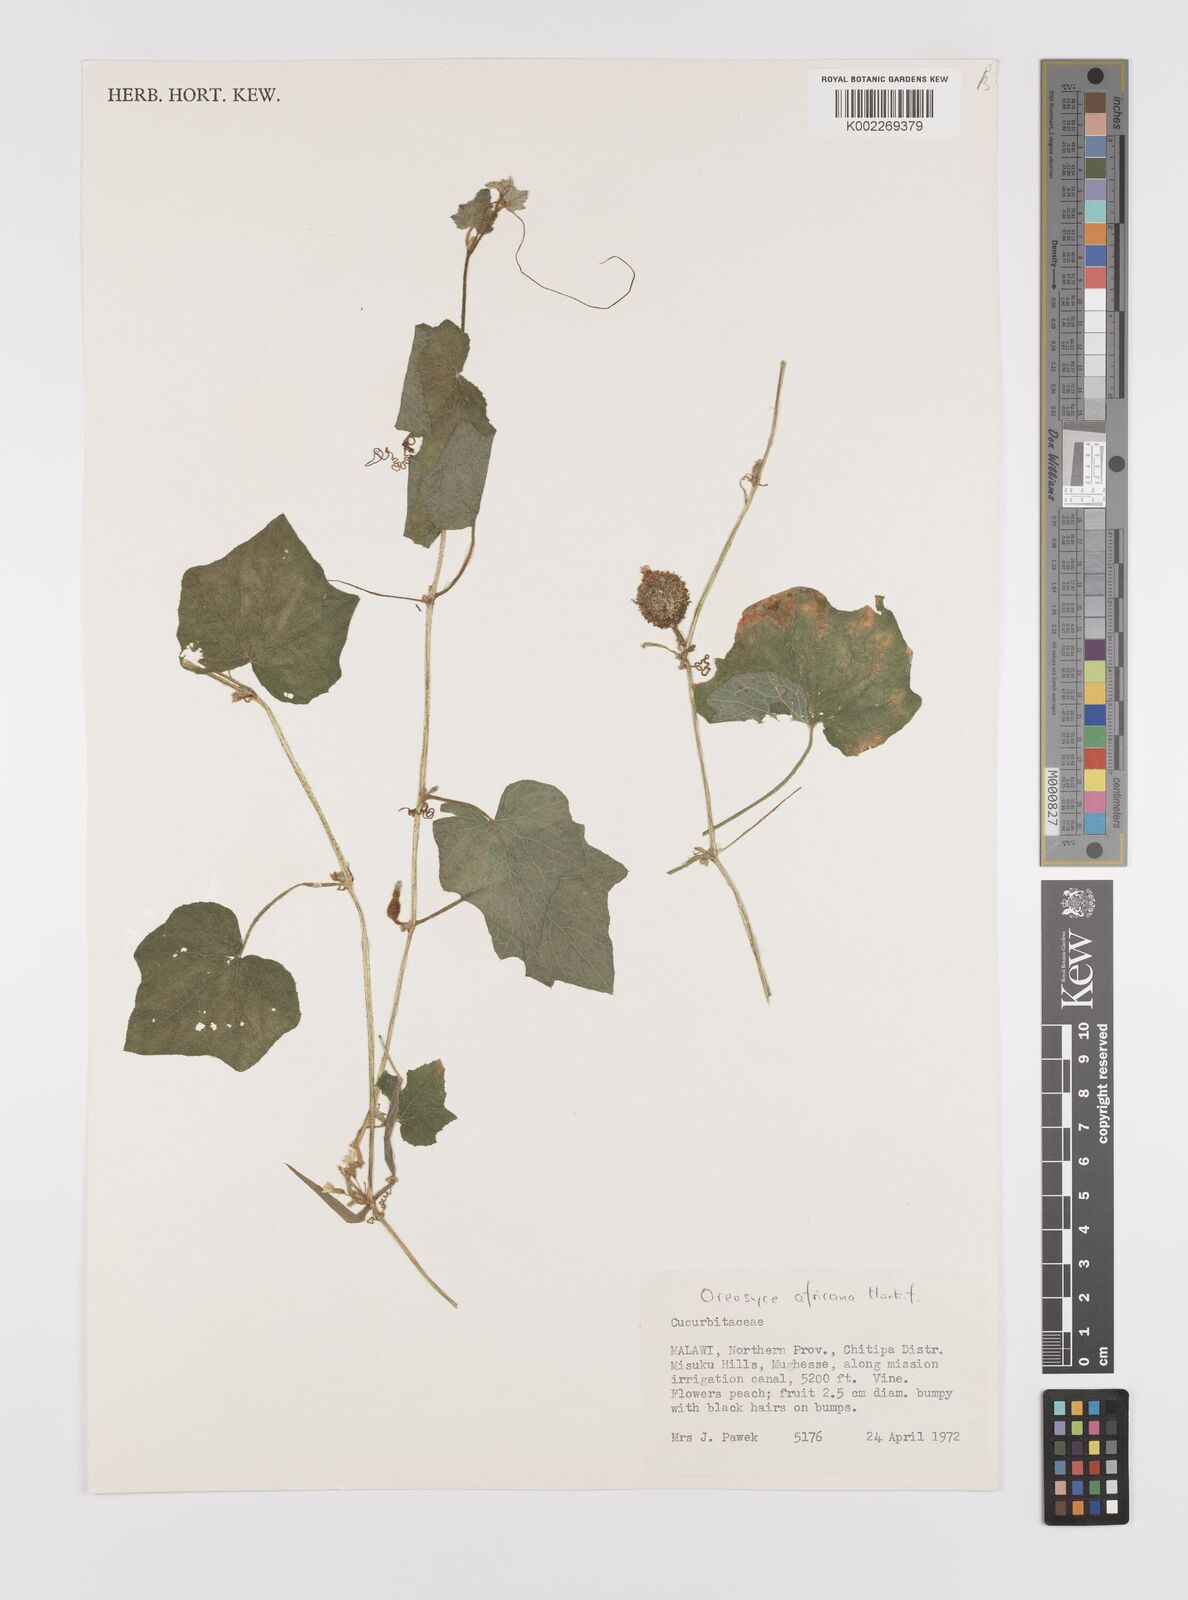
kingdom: Plantae
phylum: Tracheophyta
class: Magnoliopsida
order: Cucurbitales
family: Cucurbitaceae
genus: Cucumis
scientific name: Cucumis oreosyce
